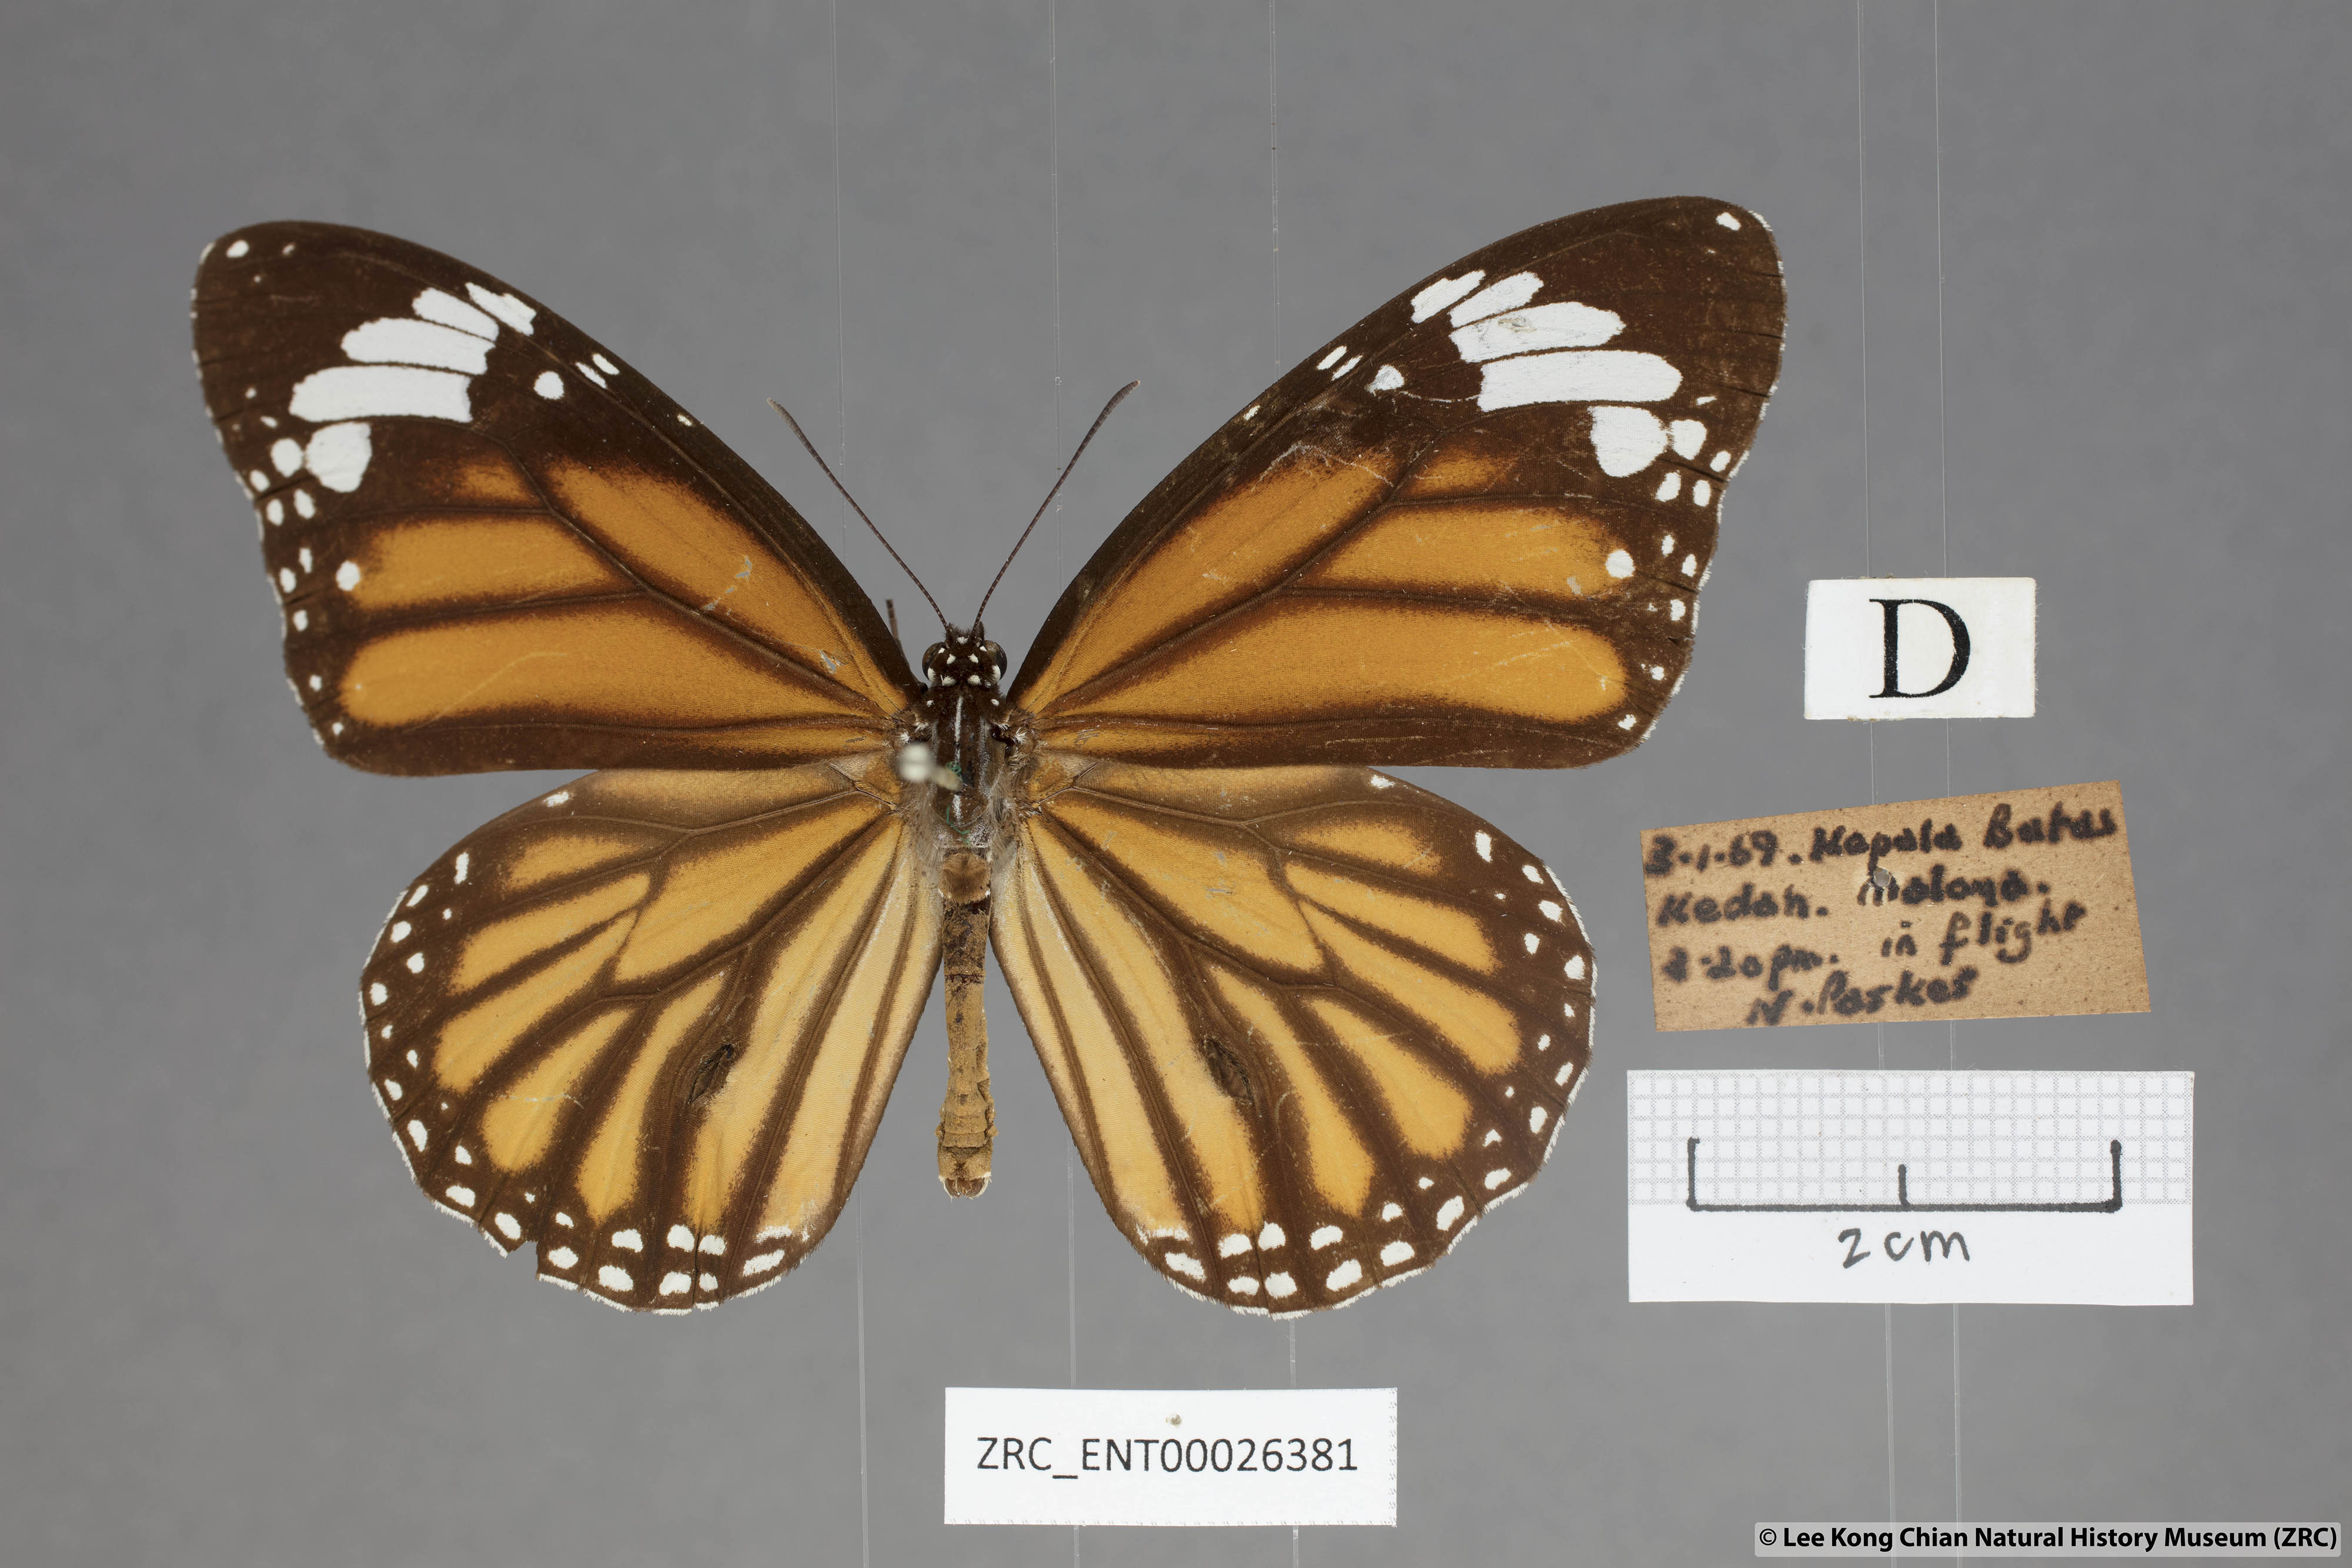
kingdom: Animalia
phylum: Arthropoda
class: Insecta
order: Lepidoptera
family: Nymphalidae
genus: Danaus
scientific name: Danaus genutia
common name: Common tiger butterfly
